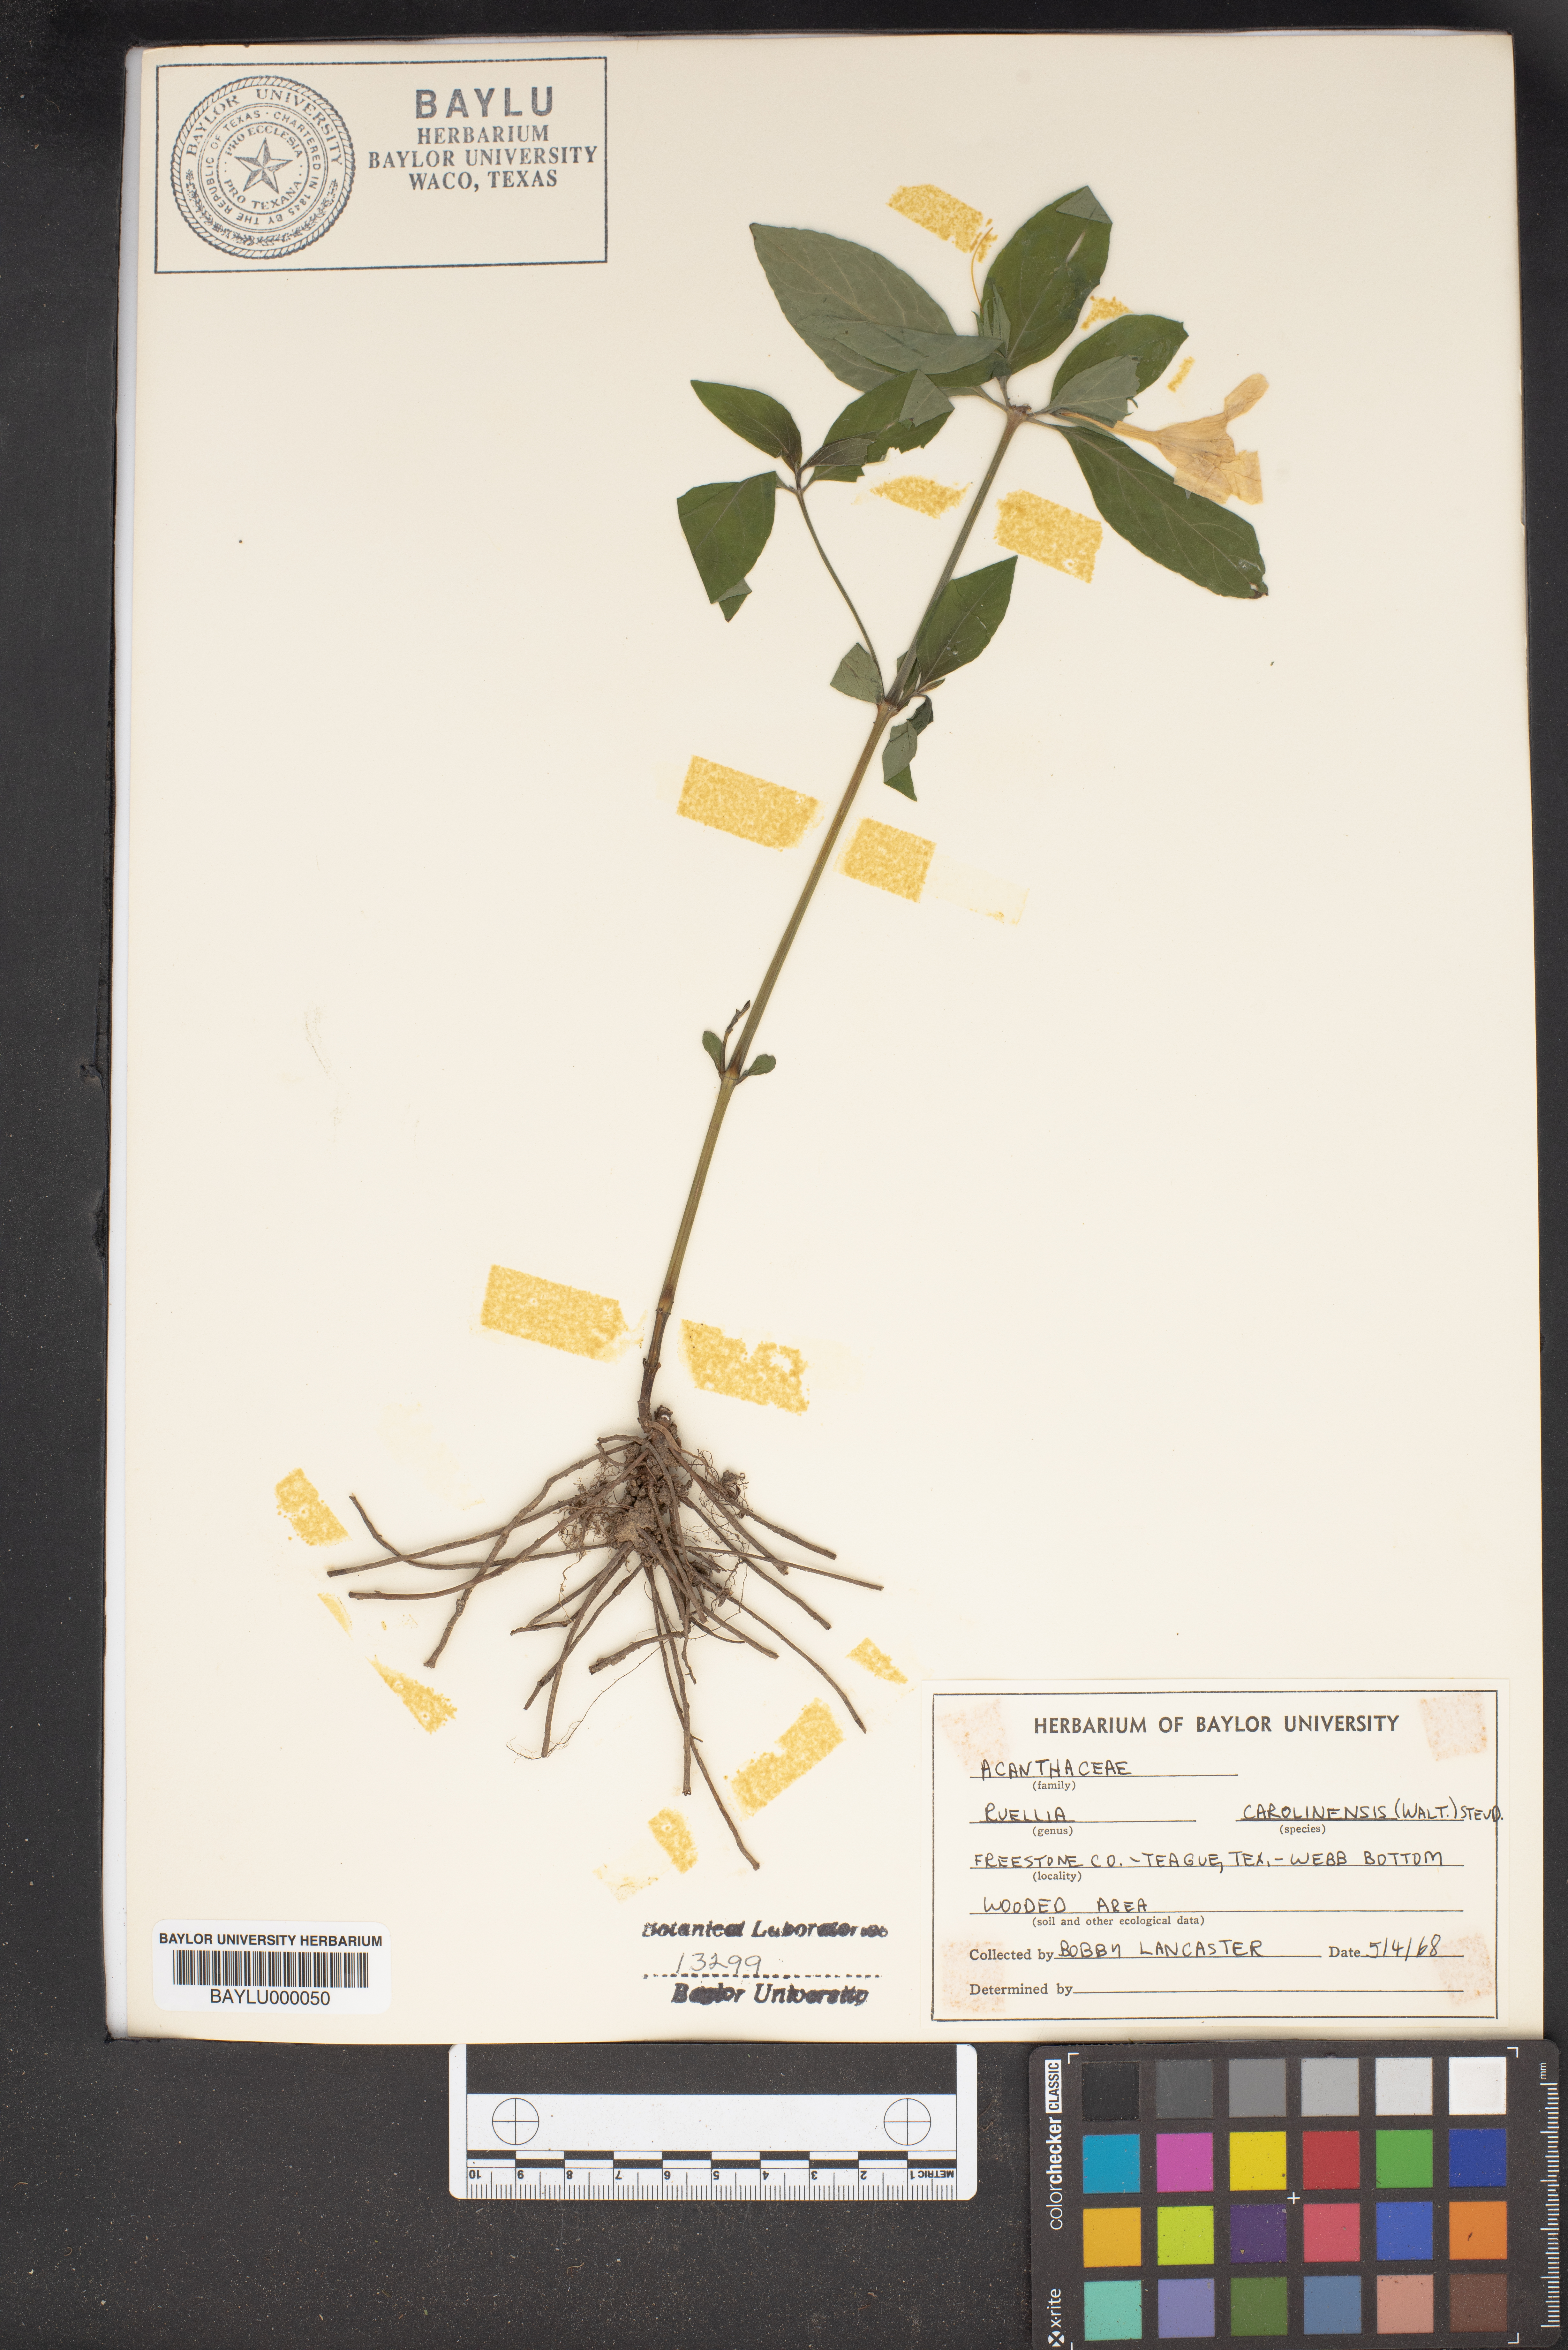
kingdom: Plantae
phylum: Tracheophyta
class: Magnoliopsida
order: Lamiales
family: Acanthaceae
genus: Ruellia
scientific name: Ruellia caroliniensis
